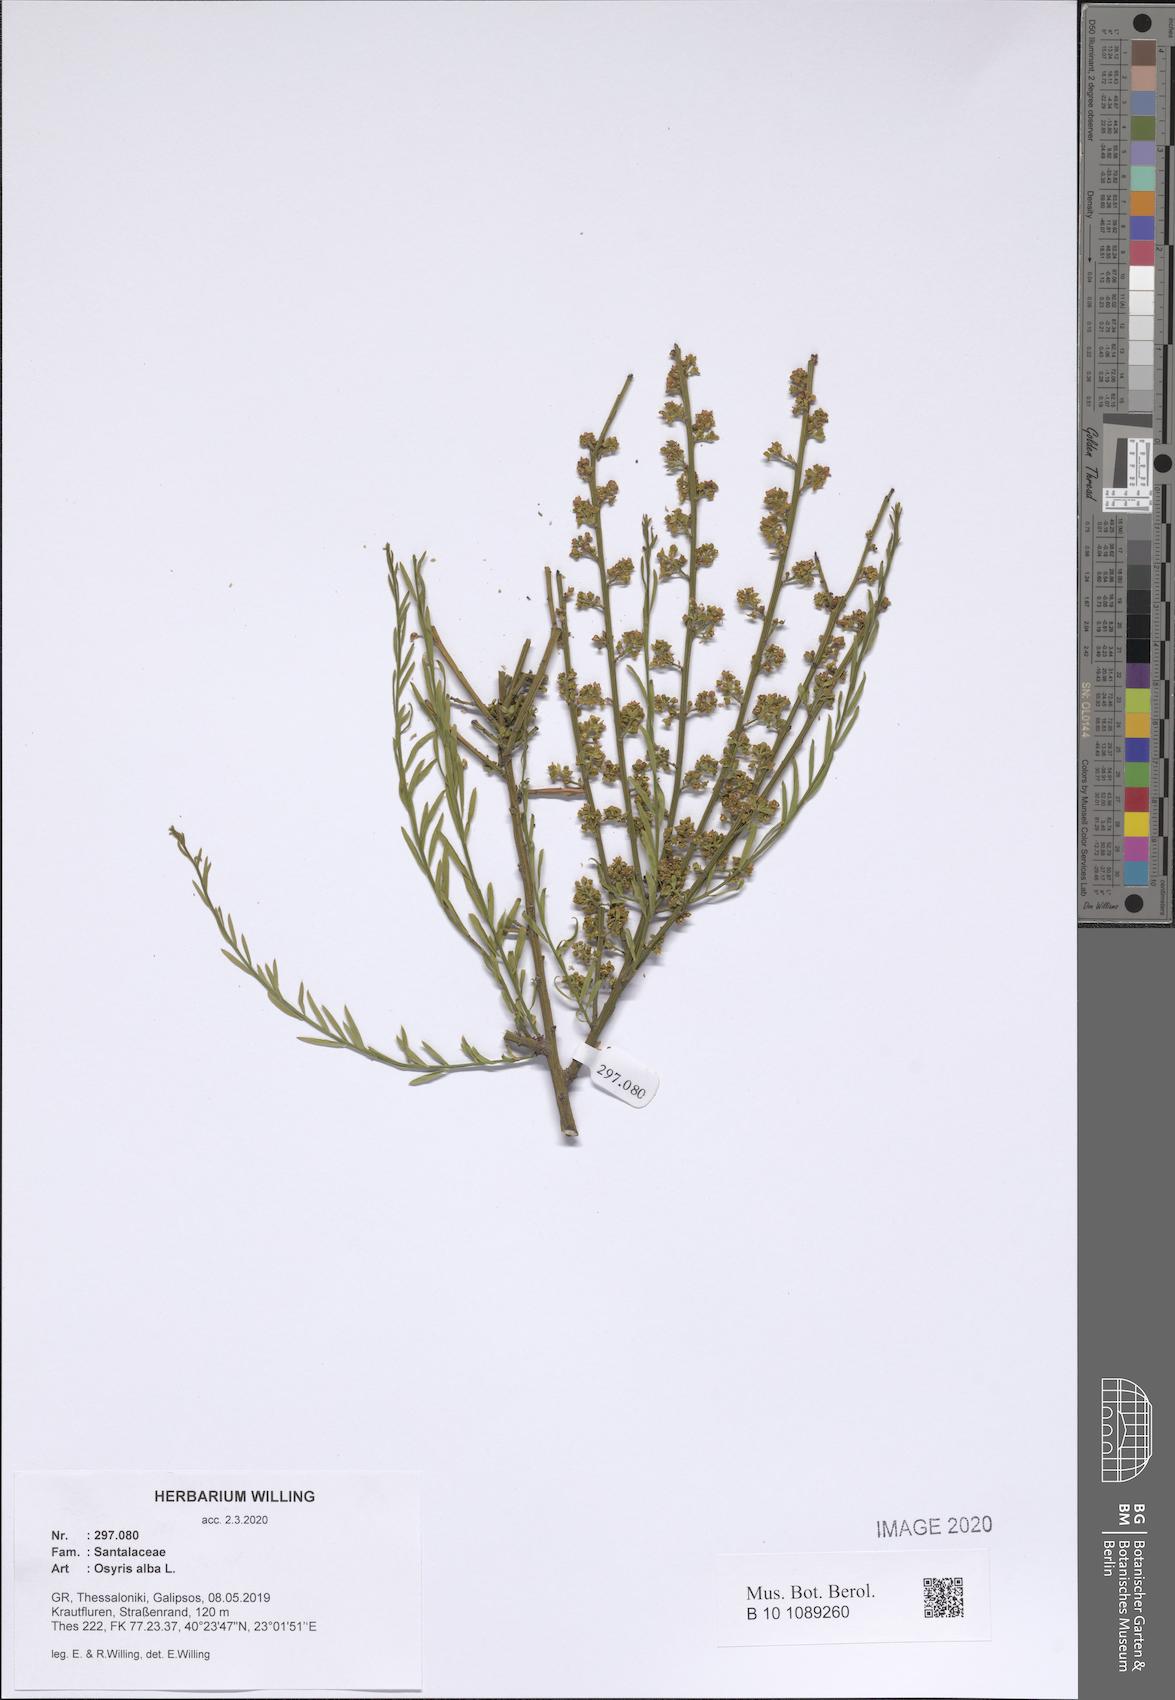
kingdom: Plantae
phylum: Tracheophyta
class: Magnoliopsida
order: Santalales
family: Santalaceae
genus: Osyris
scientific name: Osyris alba
